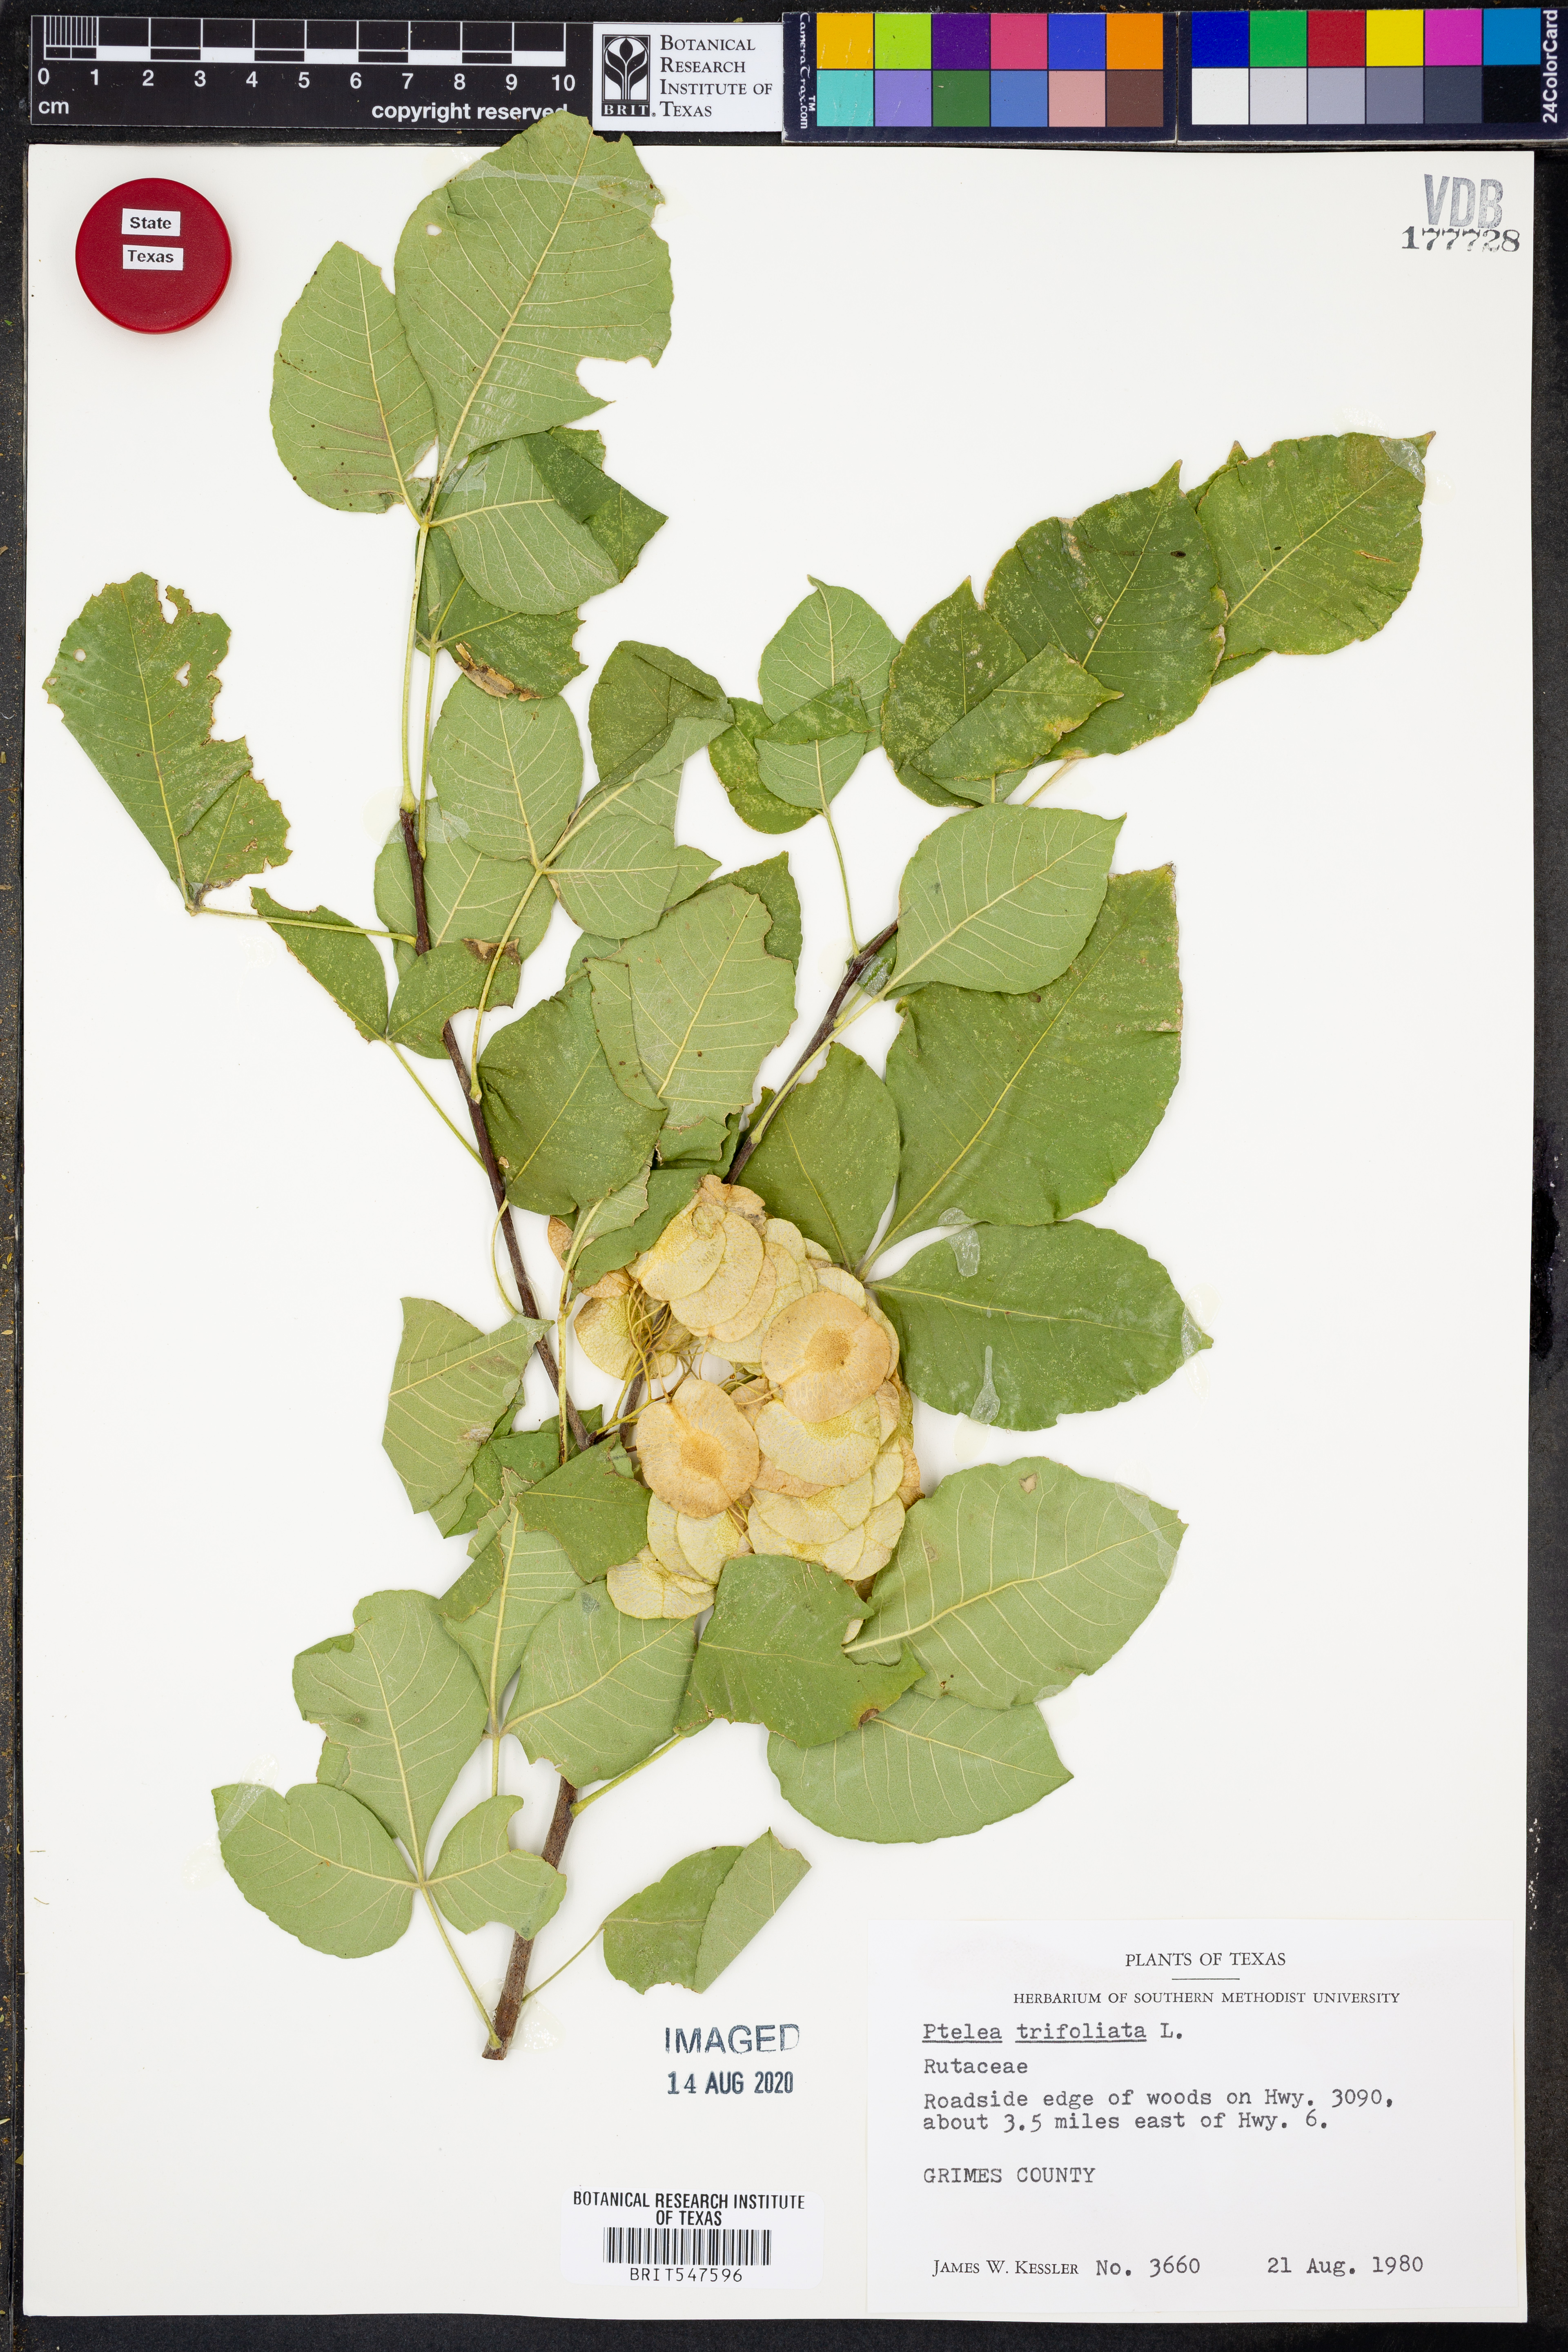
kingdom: Plantae
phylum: Tracheophyta
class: Magnoliopsida
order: Sapindales
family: Rutaceae
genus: Ptelea
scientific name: Ptelea trifoliata
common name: Common hop-tree
